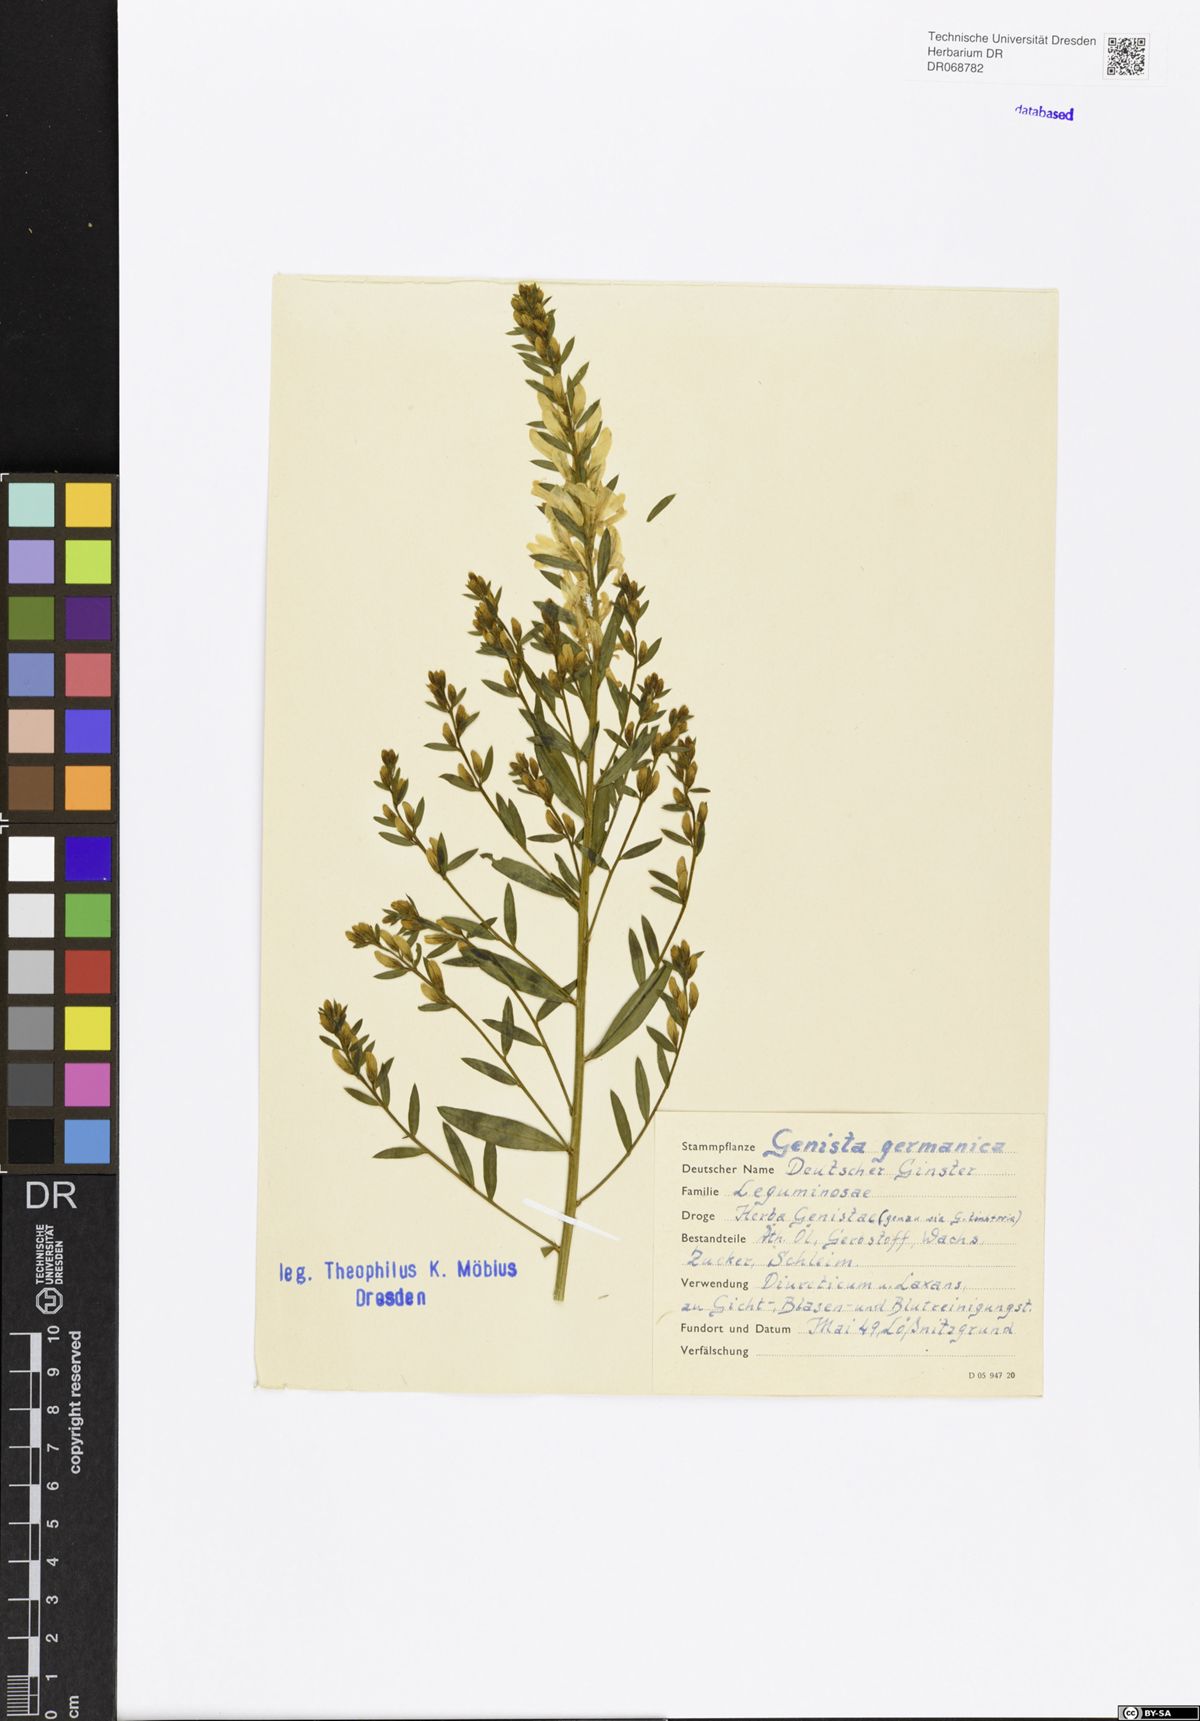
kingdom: Plantae
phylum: Tracheophyta
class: Magnoliopsida
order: Fabales
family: Fabaceae
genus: Genista
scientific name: Genista germanica
